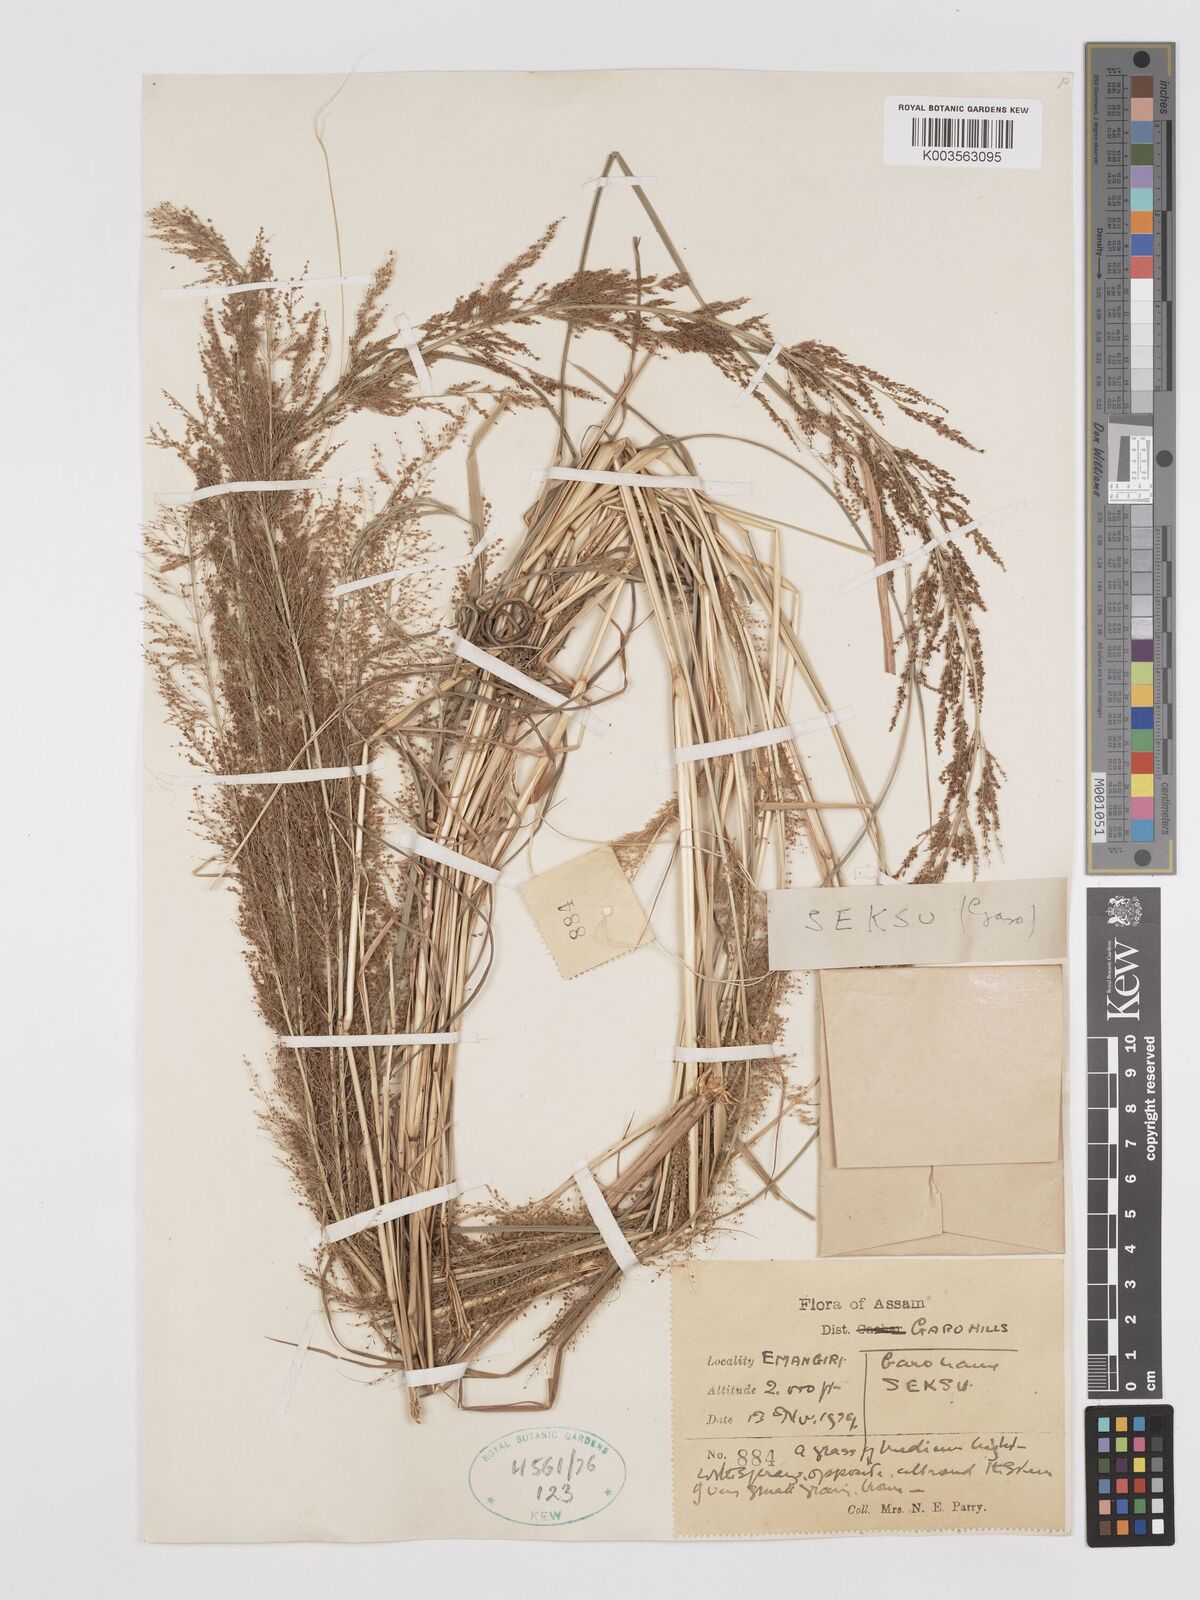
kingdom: Plantae
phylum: Tracheophyta
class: Liliopsida
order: Poales
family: Poaceae
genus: Eragrostis
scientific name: Eragrostis japonica
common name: Pond lovegrass
